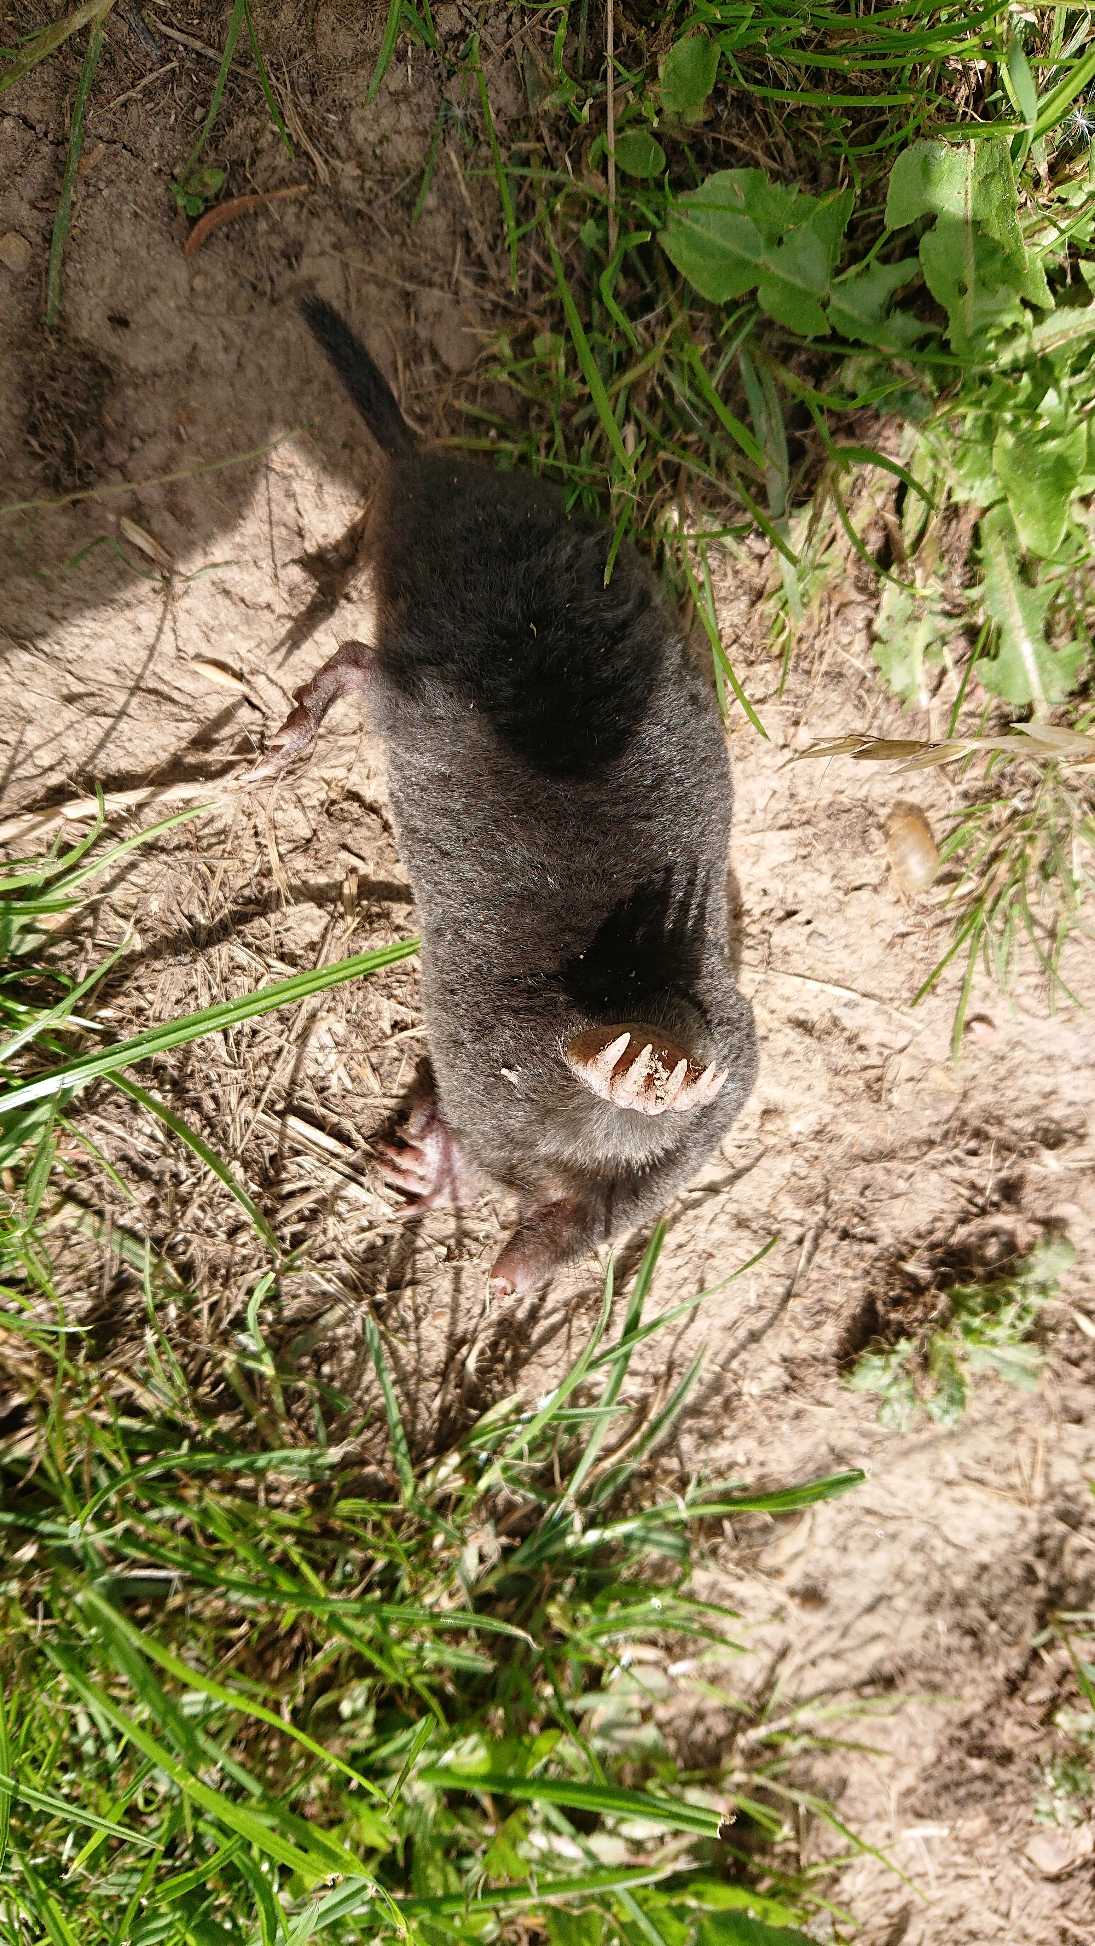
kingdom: Animalia
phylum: Chordata
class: Mammalia
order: Soricomorpha
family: Talpidae
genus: Talpa
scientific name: Talpa europaea
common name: Muldvarp
